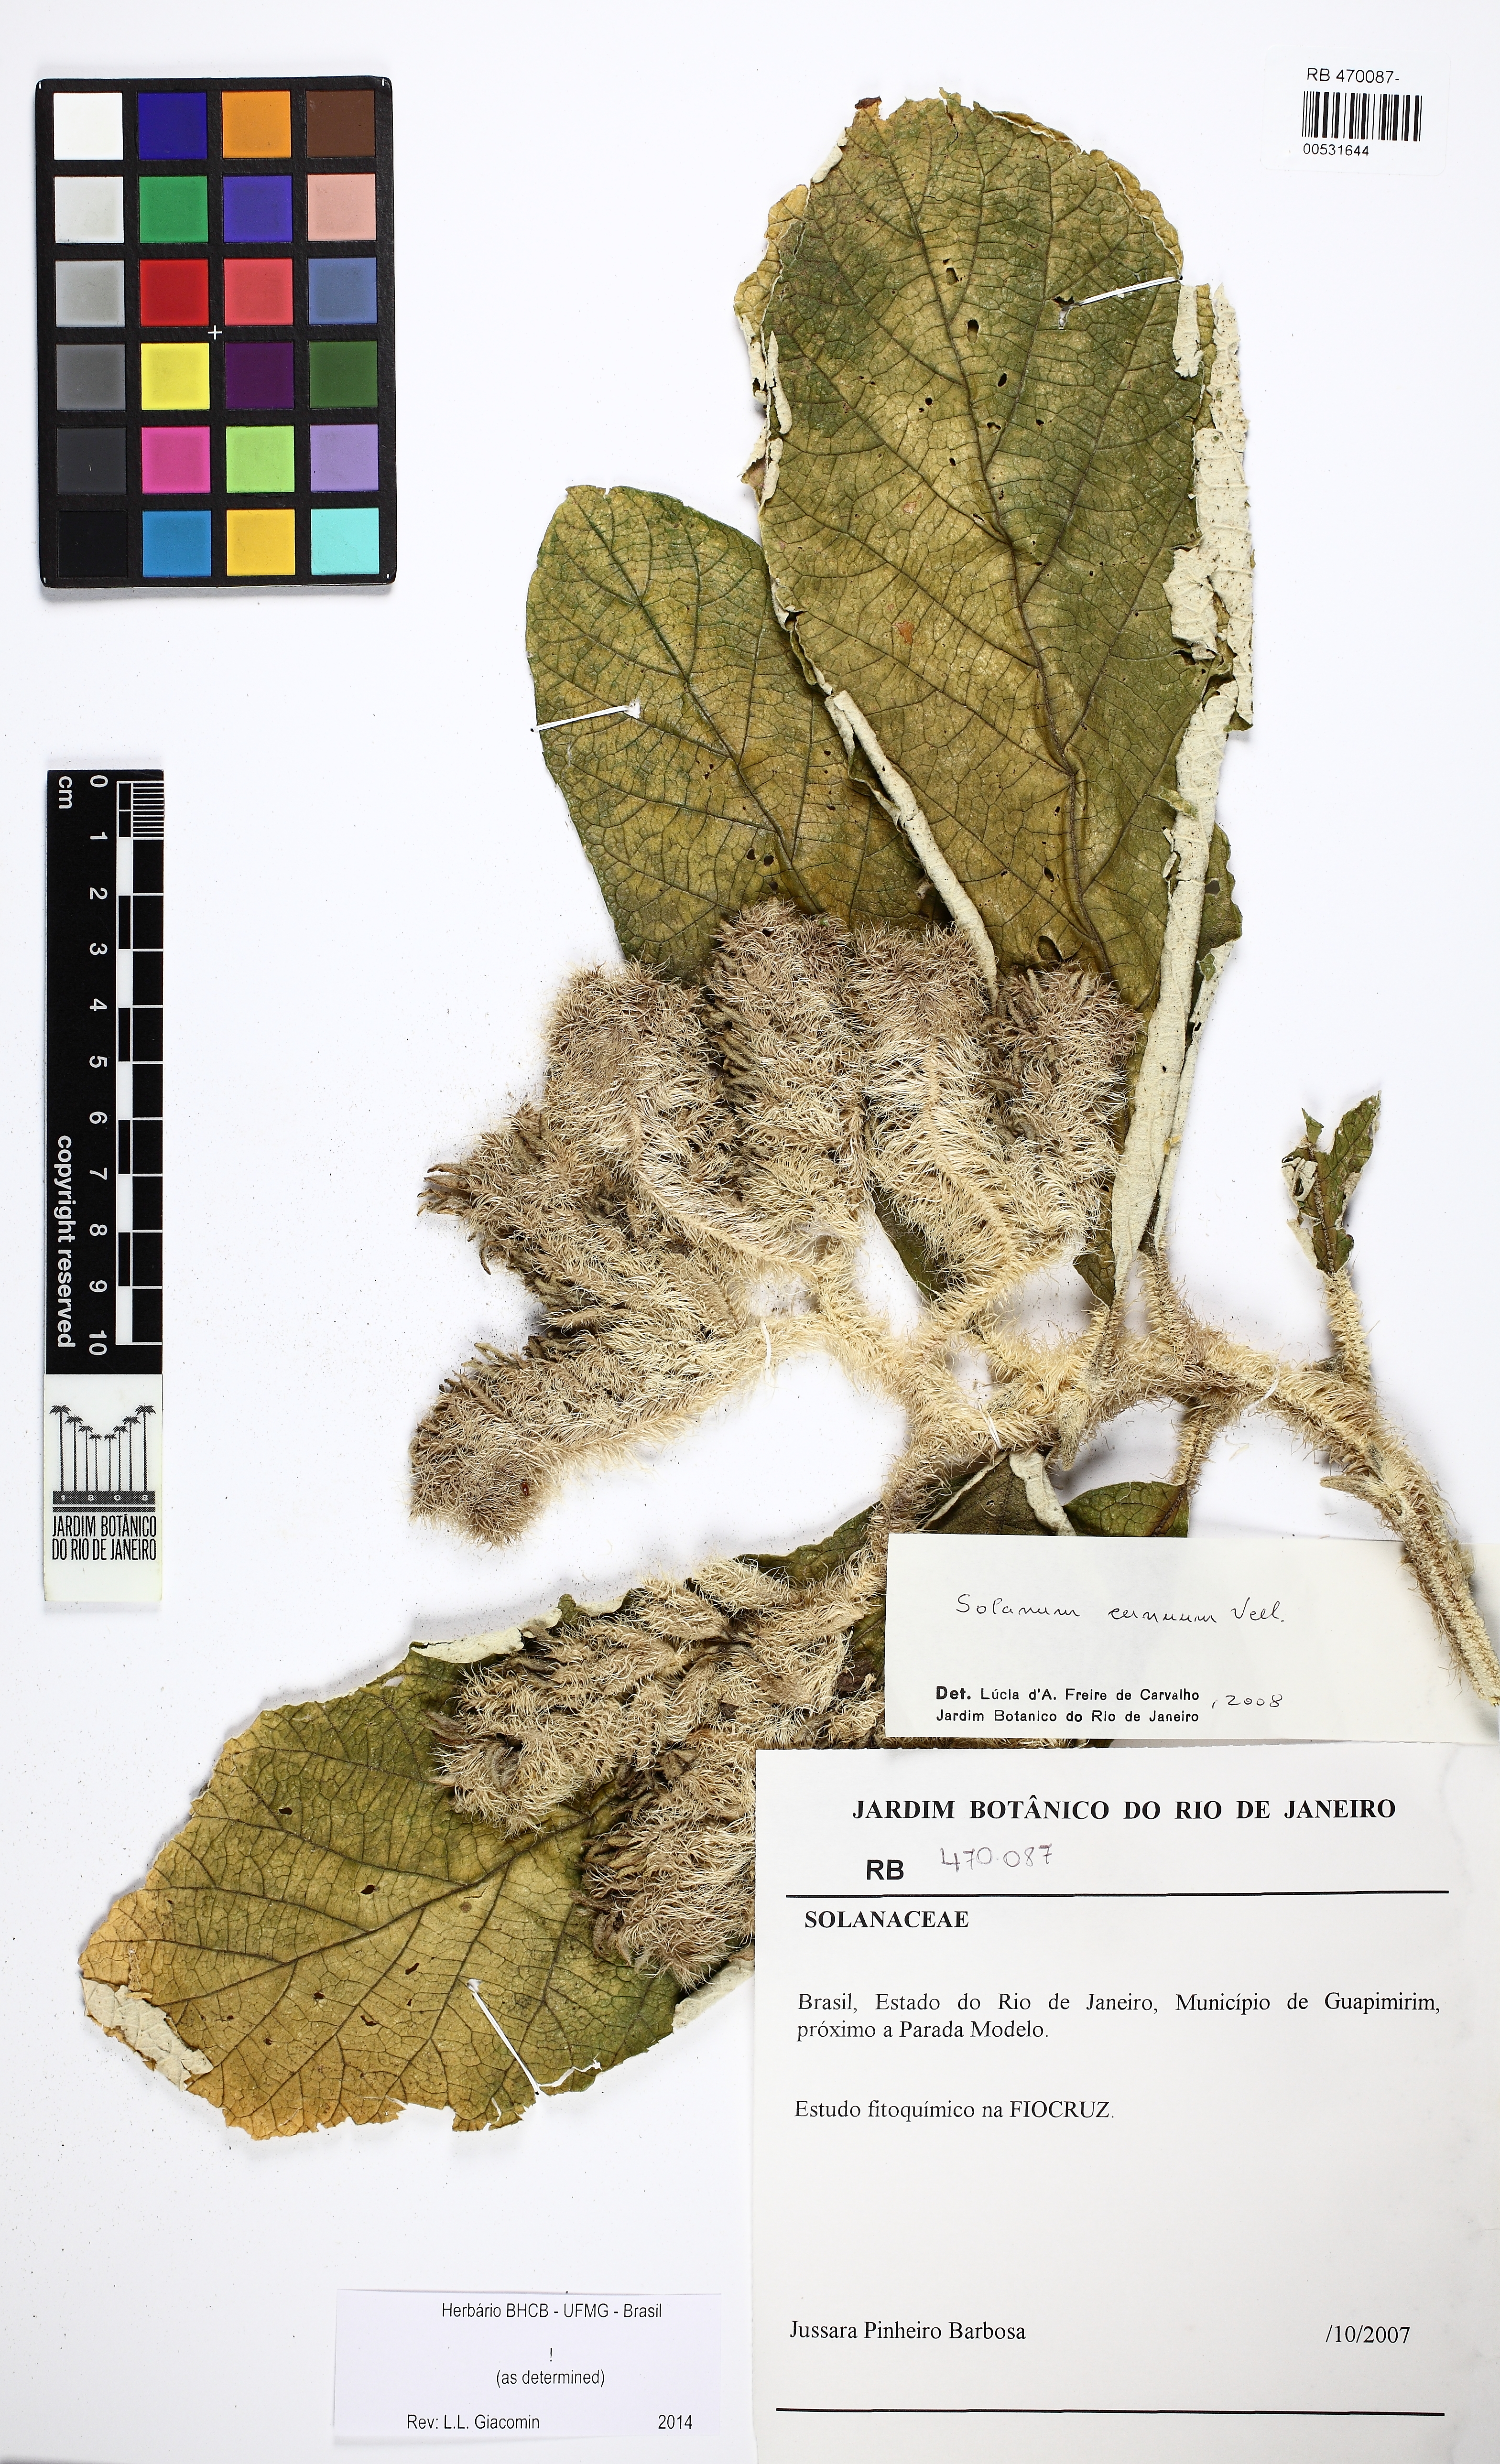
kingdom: Plantae
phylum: Tracheophyta
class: Magnoliopsida
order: Solanales
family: Solanaceae
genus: Solanum
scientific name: Solanum cernuum
